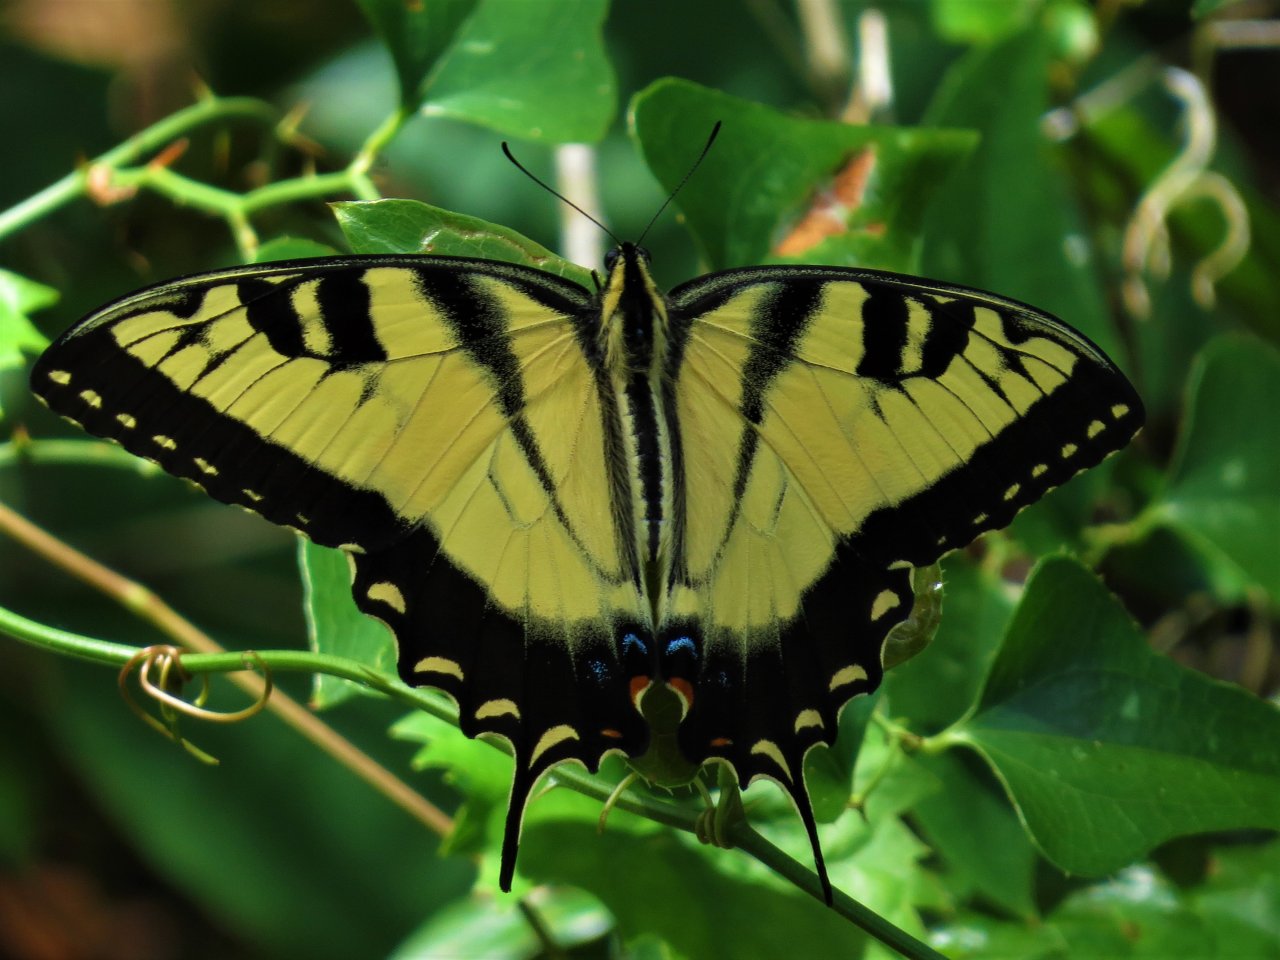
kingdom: Animalia
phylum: Arthropoda
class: Insecta
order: Lepidoptera
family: Papilionidae
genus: Pterourus
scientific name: Pterourus glaucus
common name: Eastern Tiger Swallowtail
